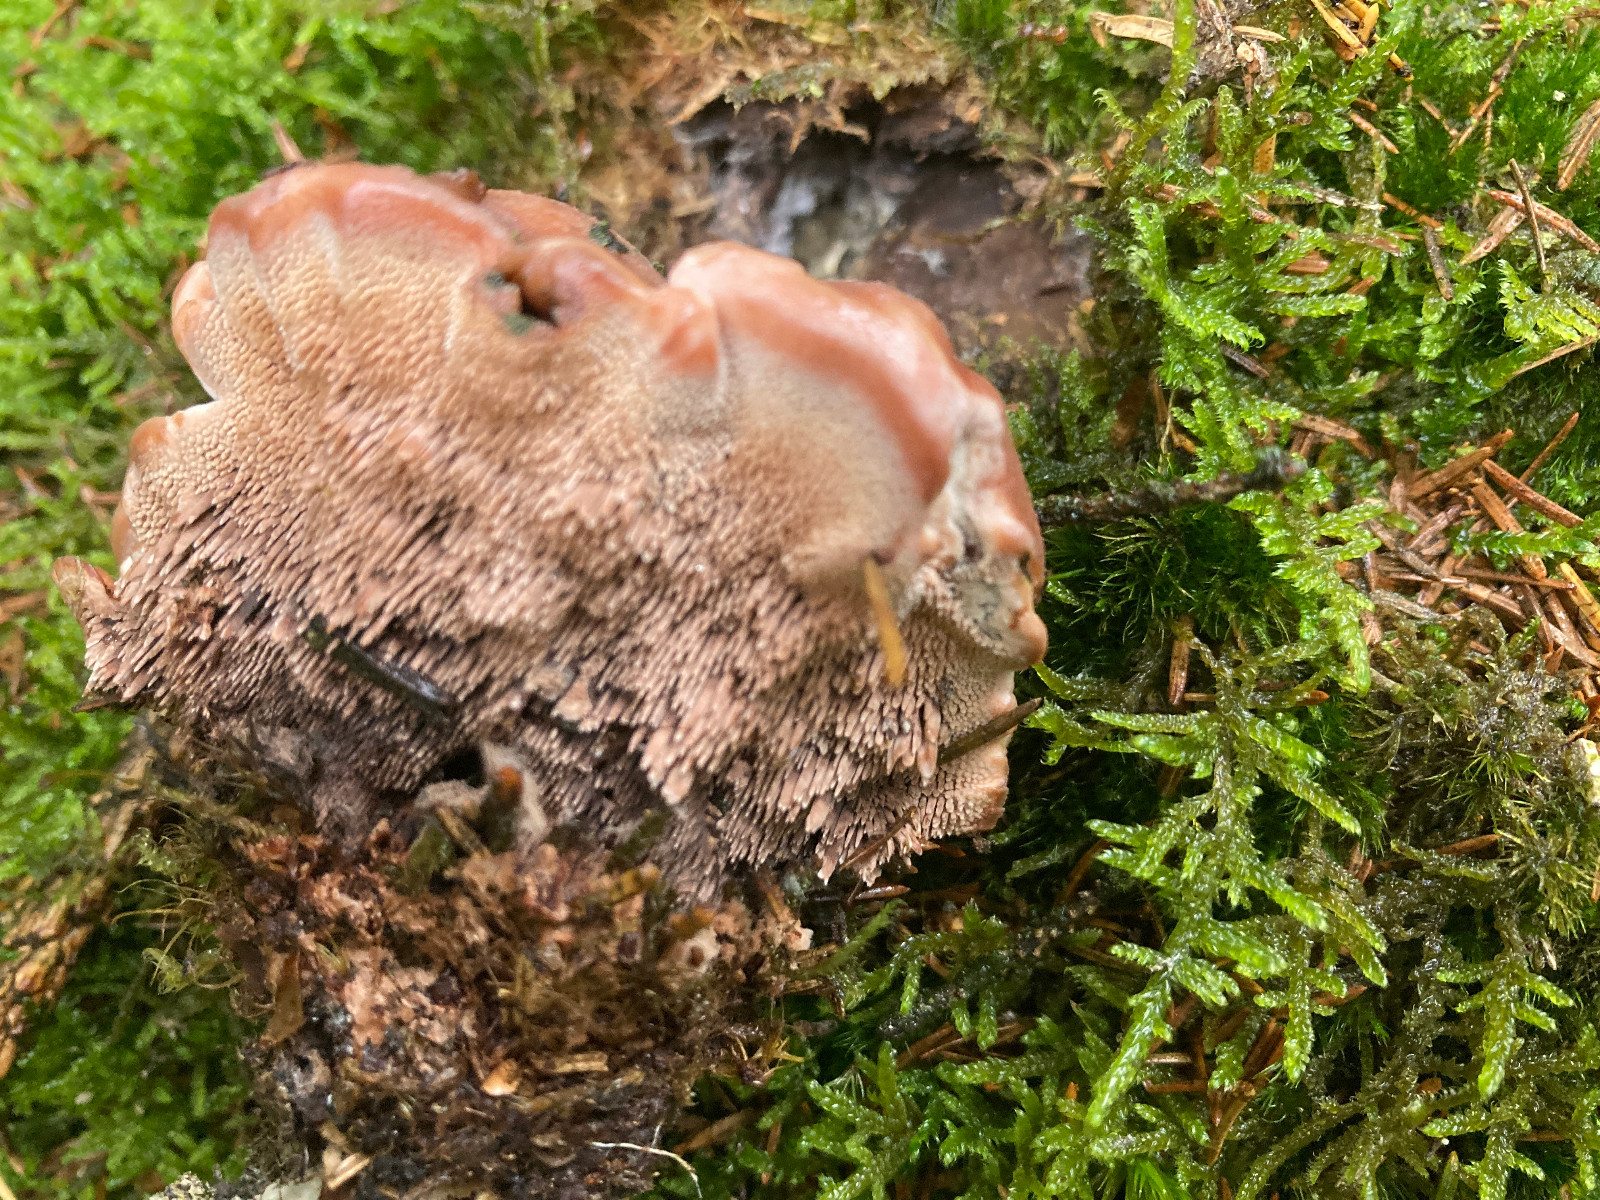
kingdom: Fungi
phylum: Basidiomycota
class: Agaricomycetes
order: Thelephorales
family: Bankeraceae
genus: Hydnellum
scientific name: Hydnellum ferrugineum
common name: rust-korkpigsvamp
